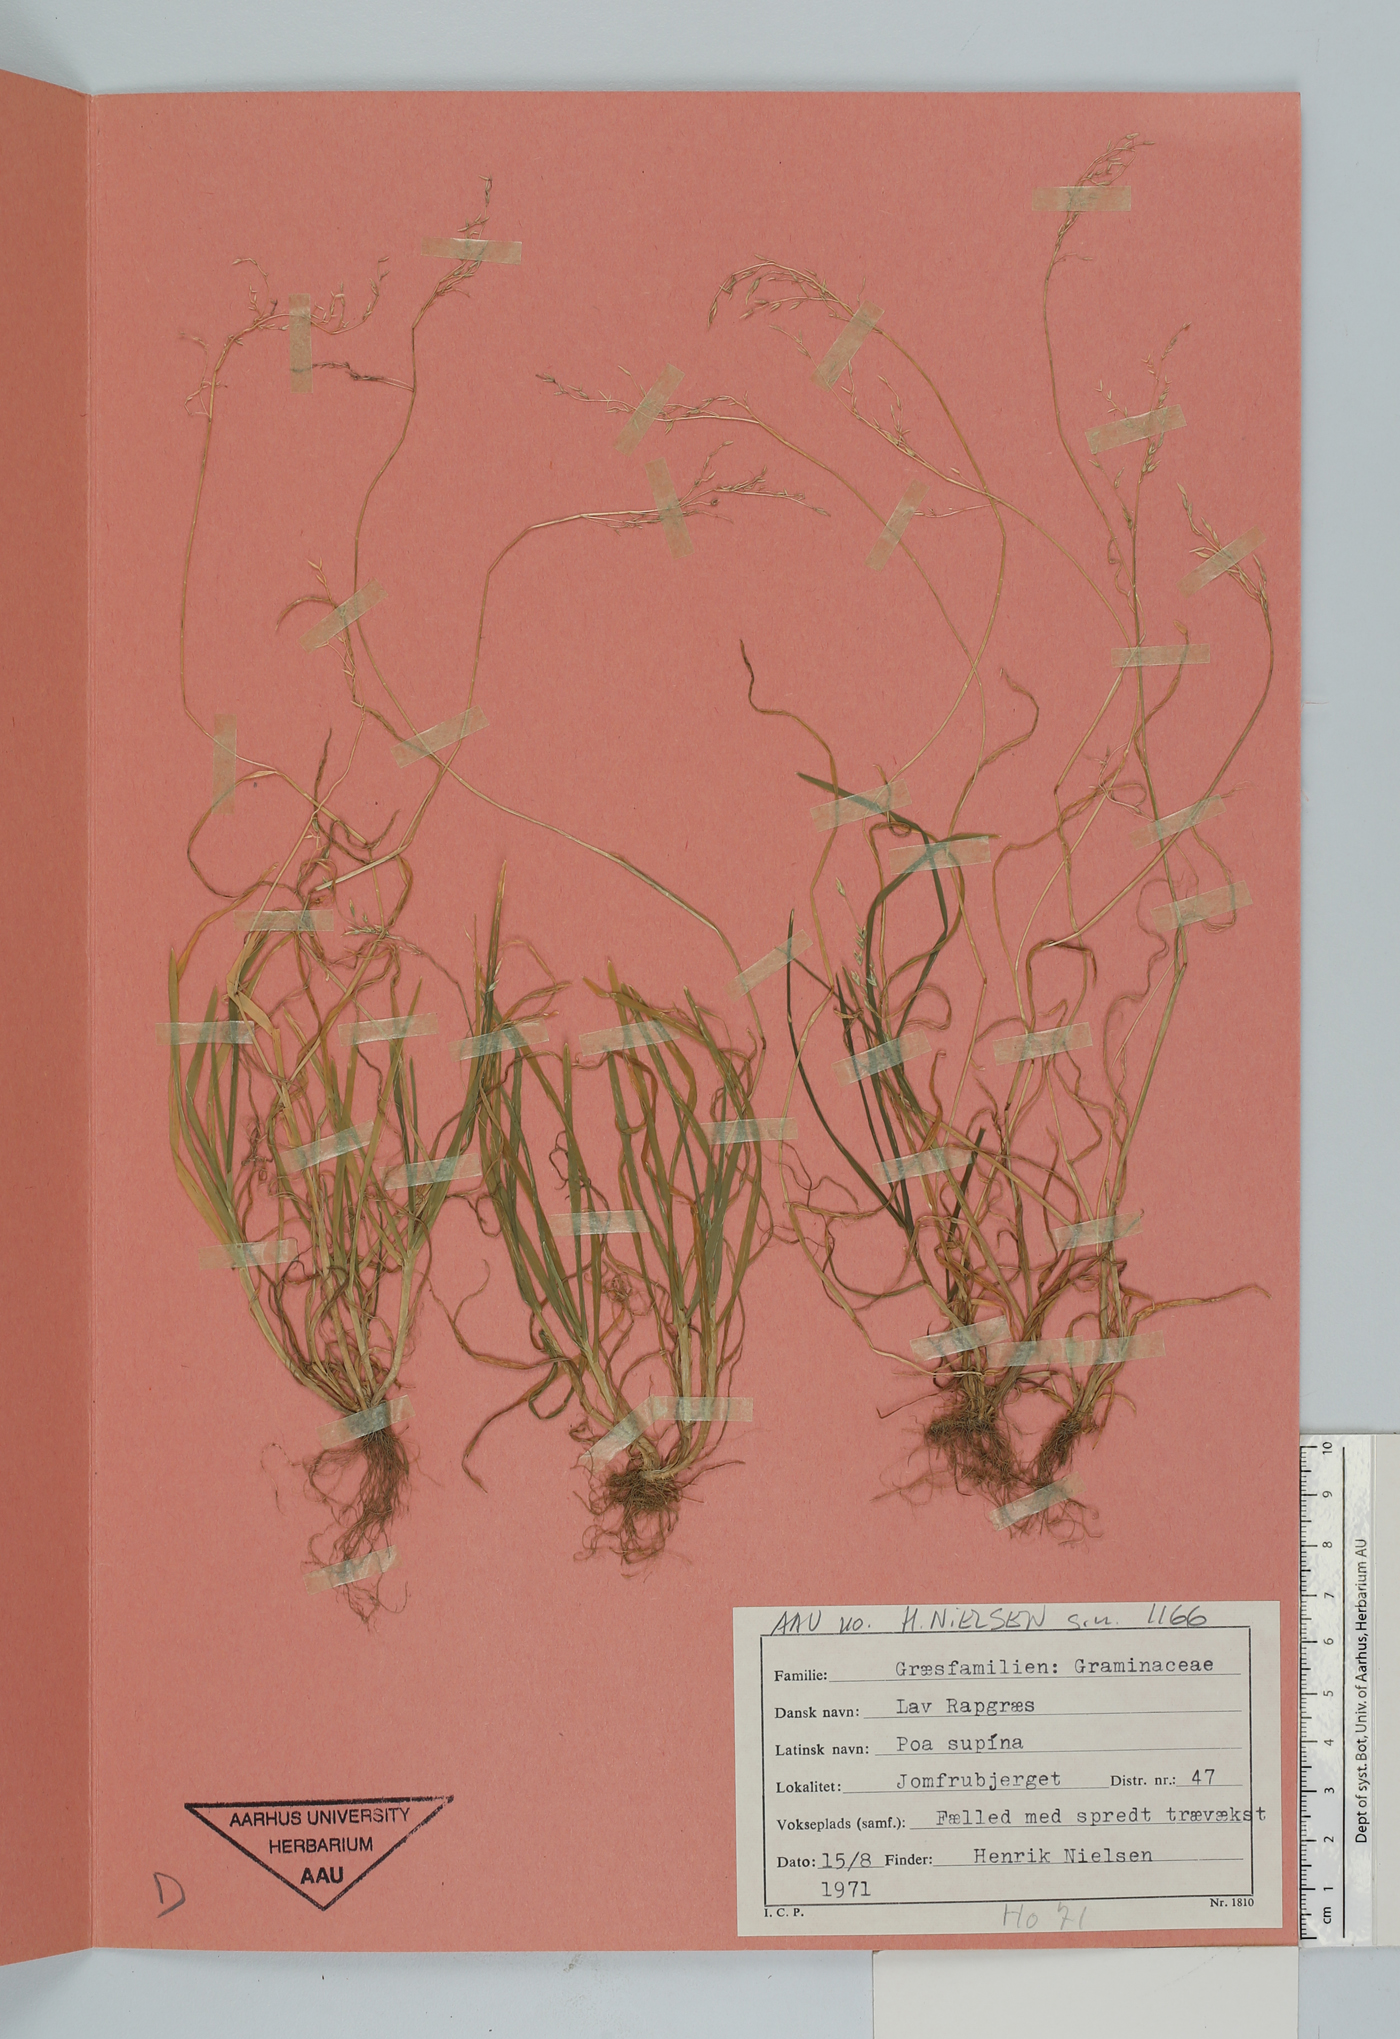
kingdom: Plantae
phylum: Tracheophyta
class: Liliopsida
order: Poales
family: Poaceae
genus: Poa
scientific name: Poa supina
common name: Supina bluegrass
